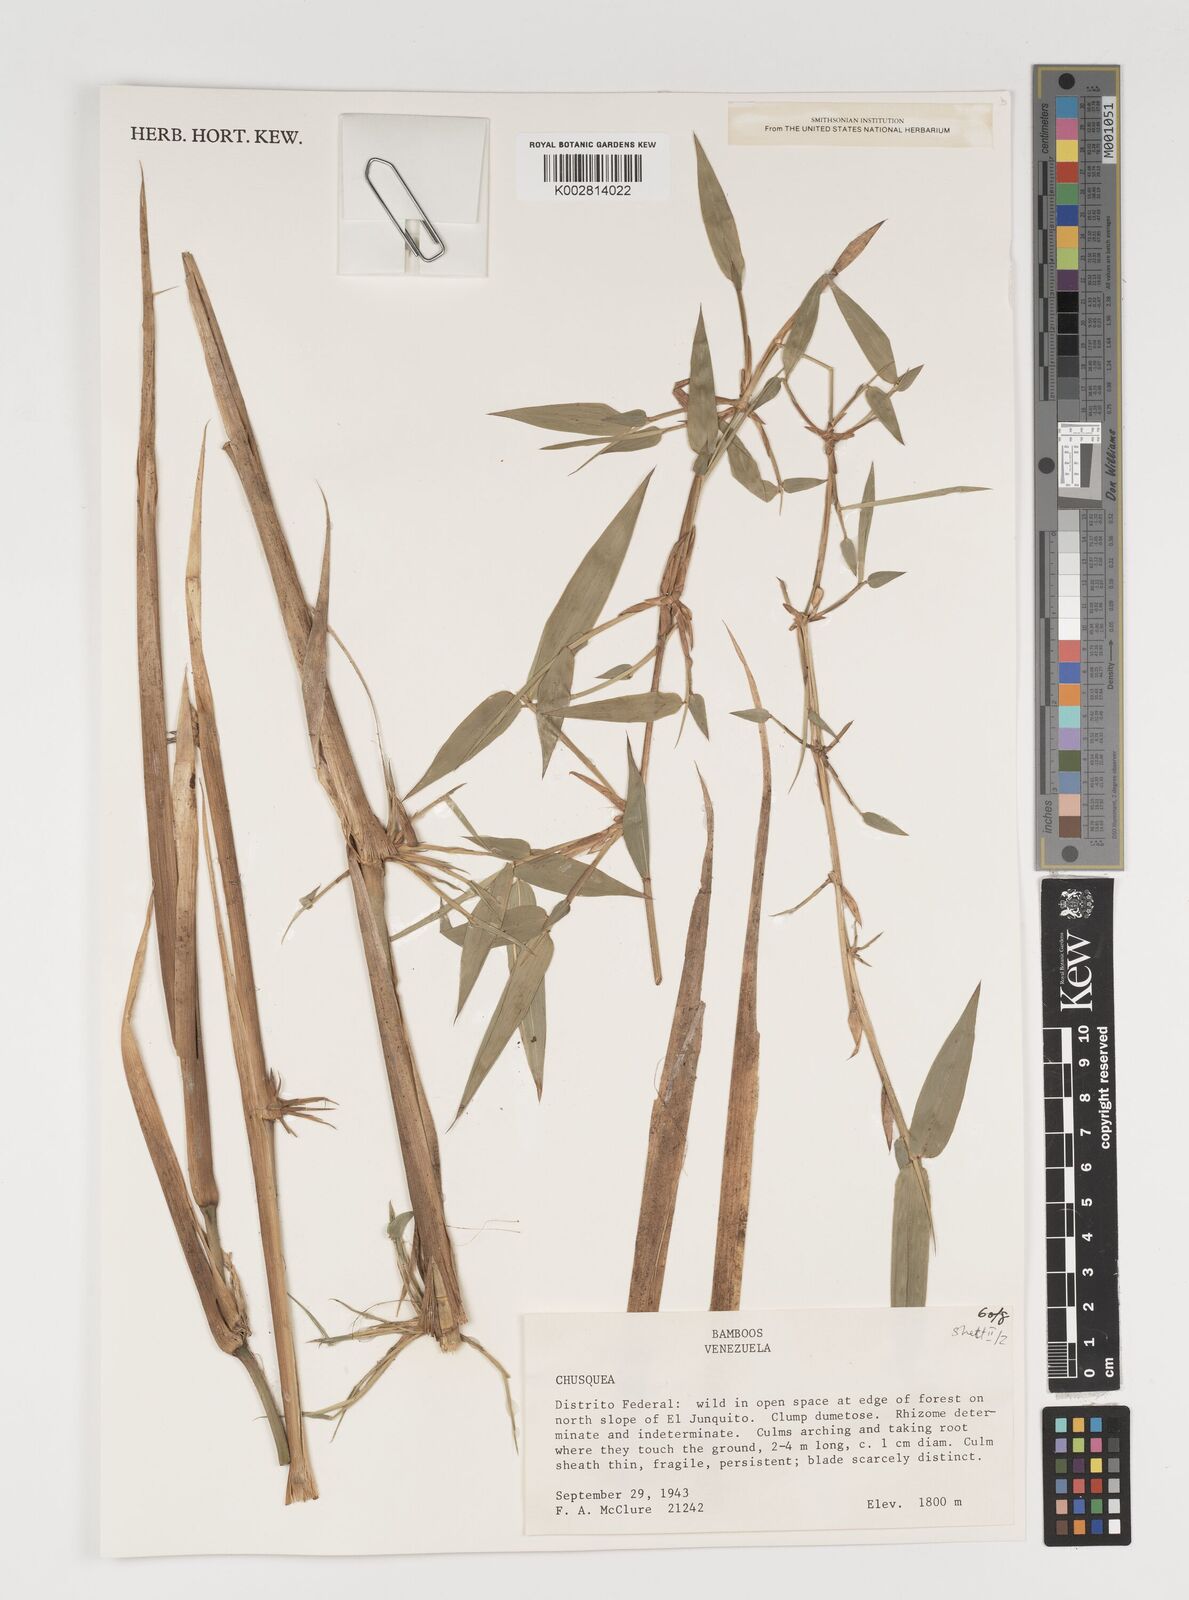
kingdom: Plantae
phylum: Tracheophyta
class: Liliopsida
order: Poales
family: Poaceae
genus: Chusquea
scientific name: Chusquea
